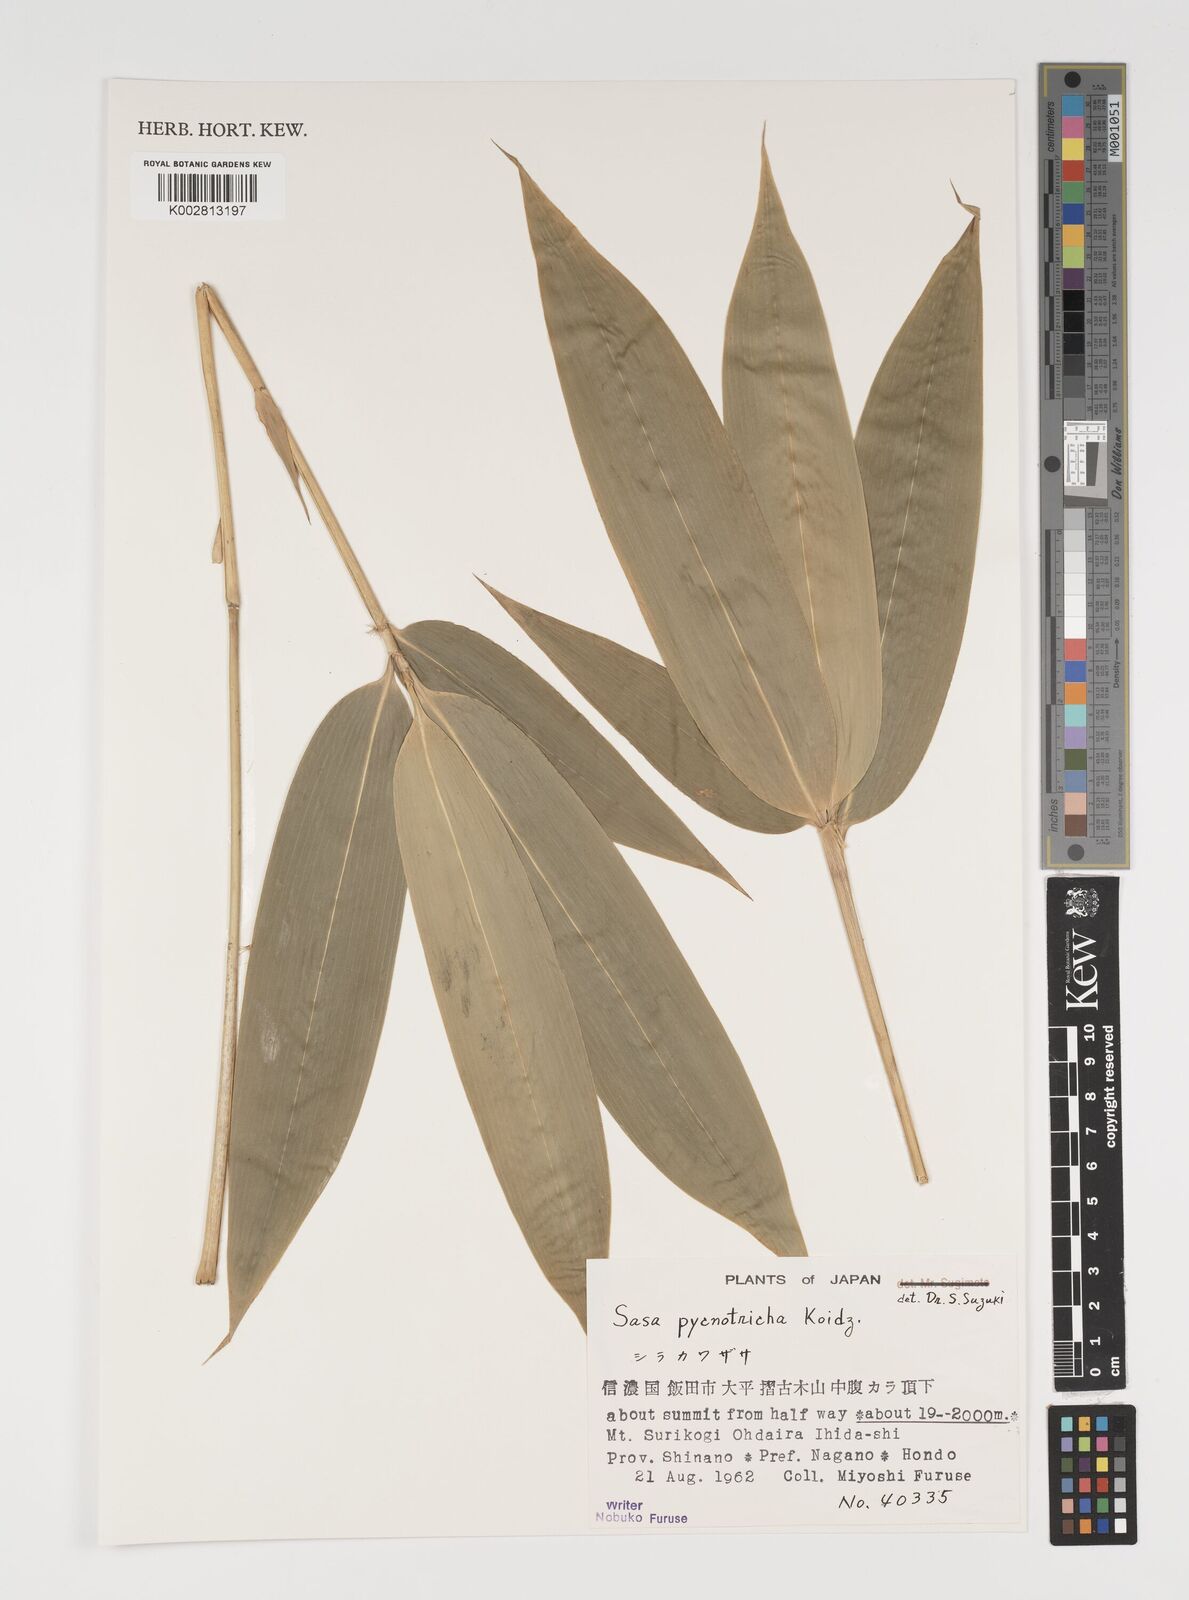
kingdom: Plantae
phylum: Tracheophyta
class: Liliopsida
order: Poales
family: Poaceae
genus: Sasa
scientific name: Sasa nipponica
